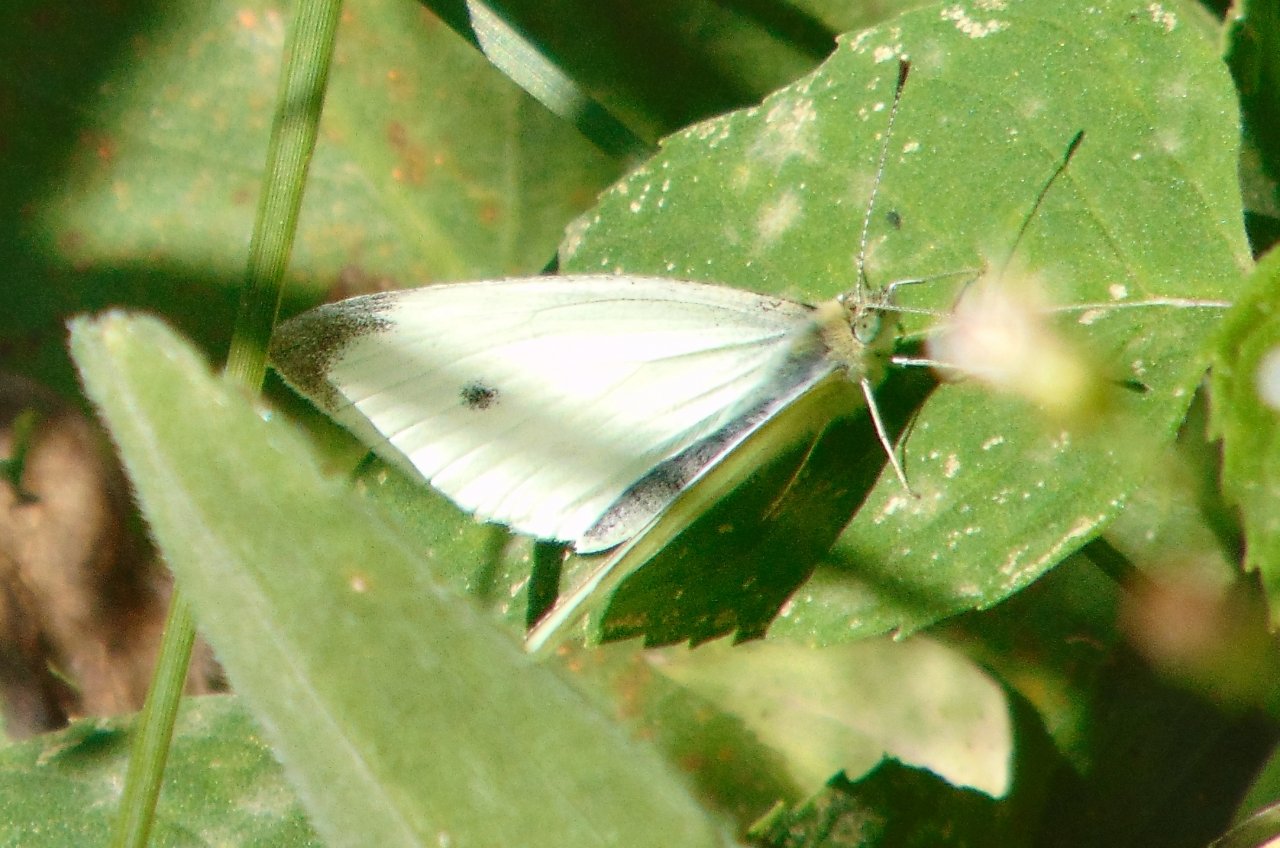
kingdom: Animalia
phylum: Arthropoda
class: Insecta
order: Lepidoptera
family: Pieridae
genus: Pieris
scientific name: Pieris rapae
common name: Cabbage White
